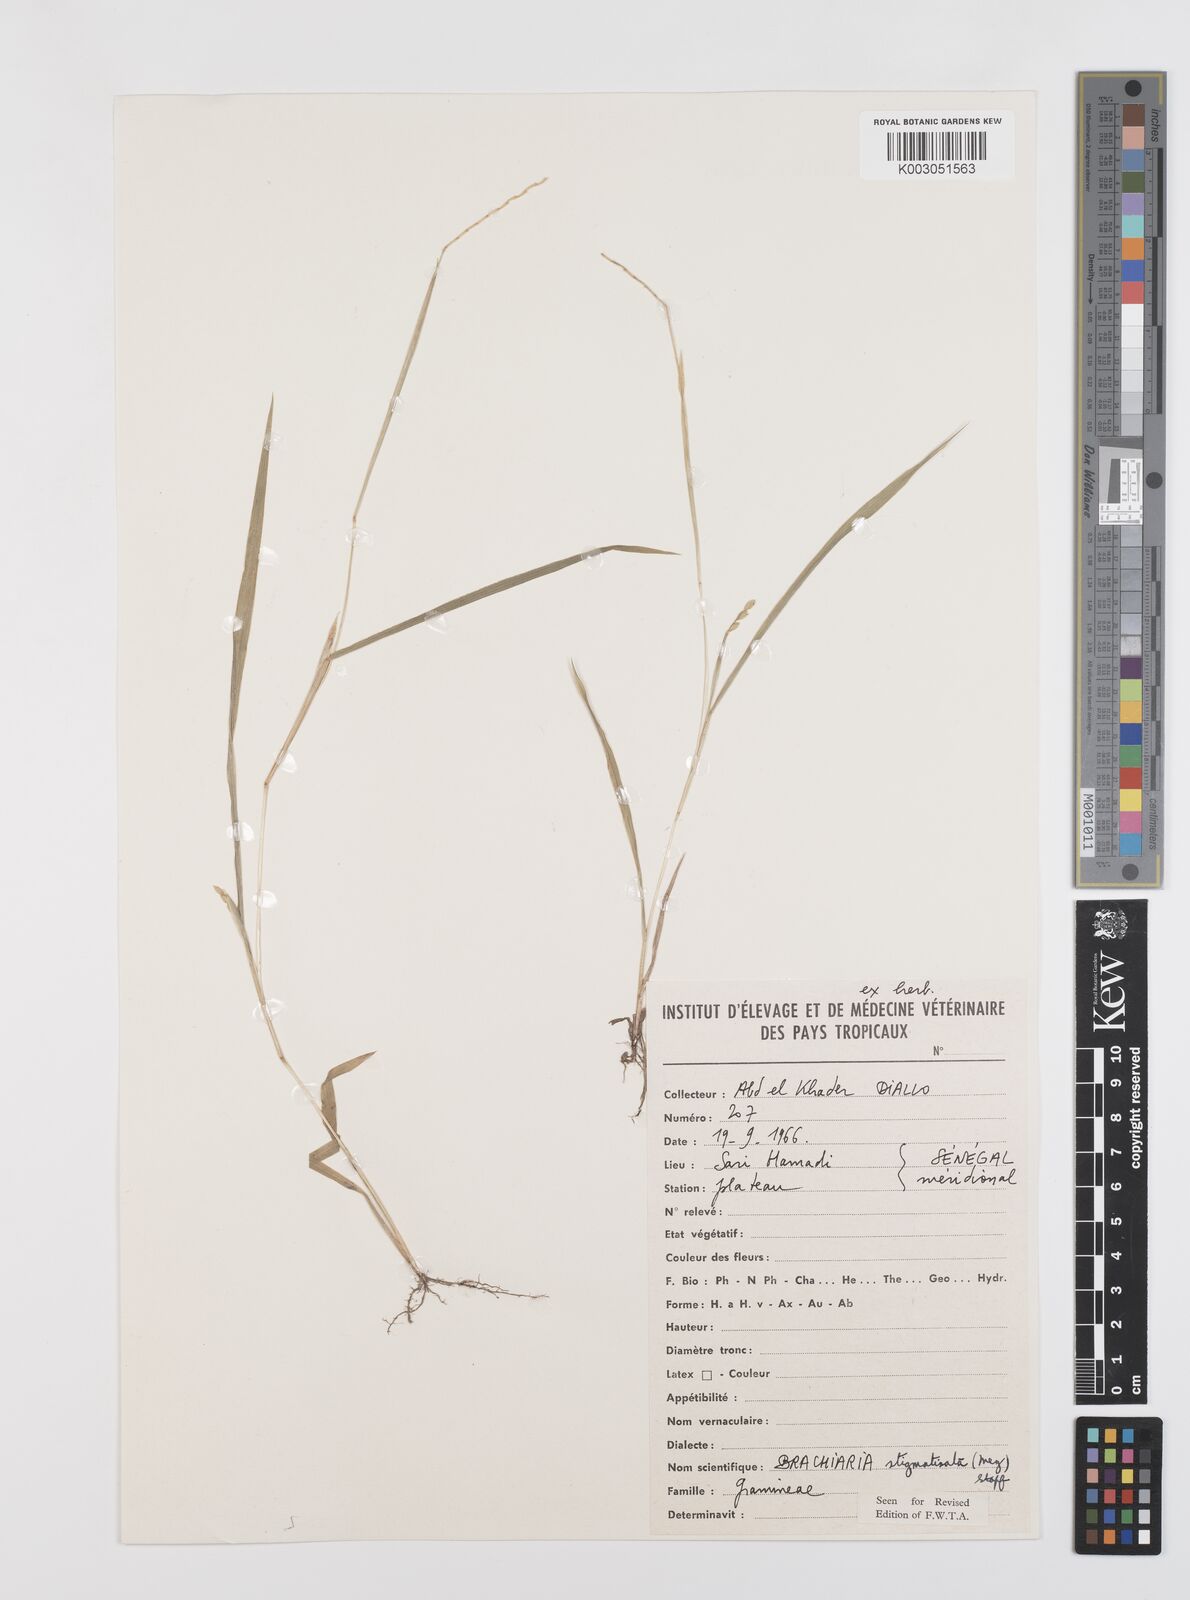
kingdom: Plantae
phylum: Tracheophyta
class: Liliopsida
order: Poales
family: Poaceae
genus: Urochloa
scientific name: Urochloa stigmatisata
